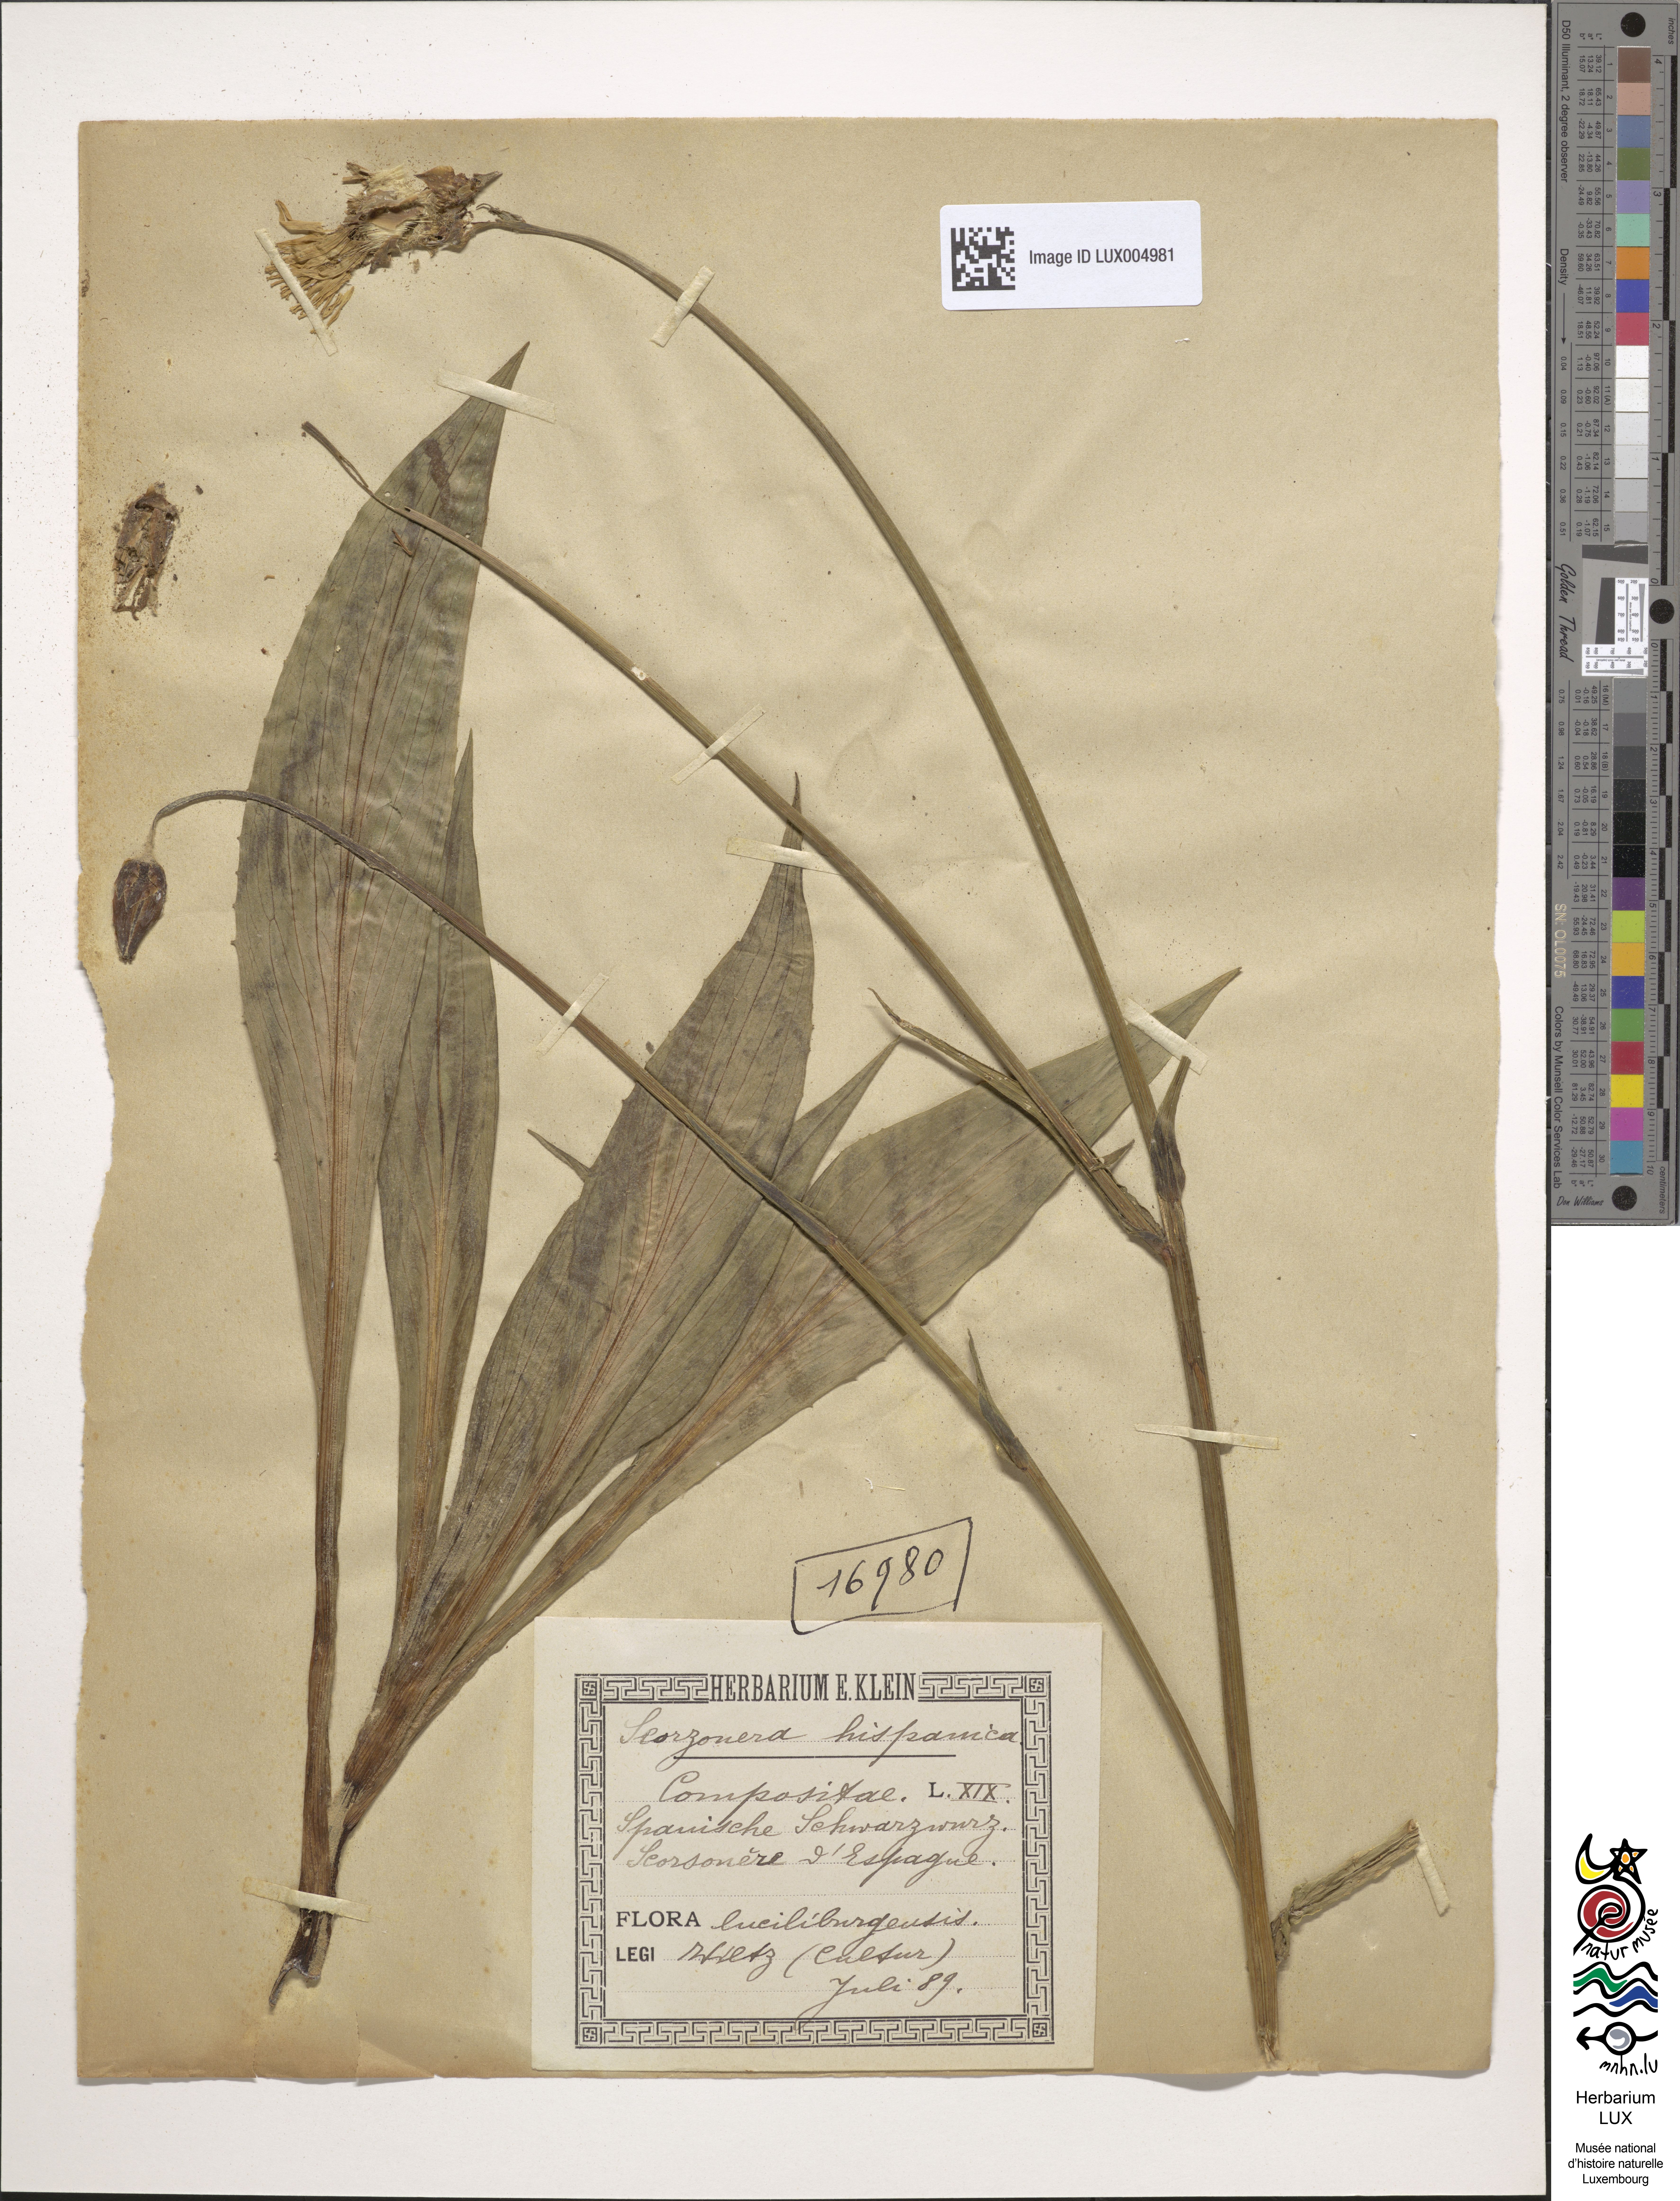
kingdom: Plantae
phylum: Tracheophyta
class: Magnoliopsida
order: Asterales
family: Asteraceae
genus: Pseudopodospermum
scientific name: Pseudopodospermum hispanicum
